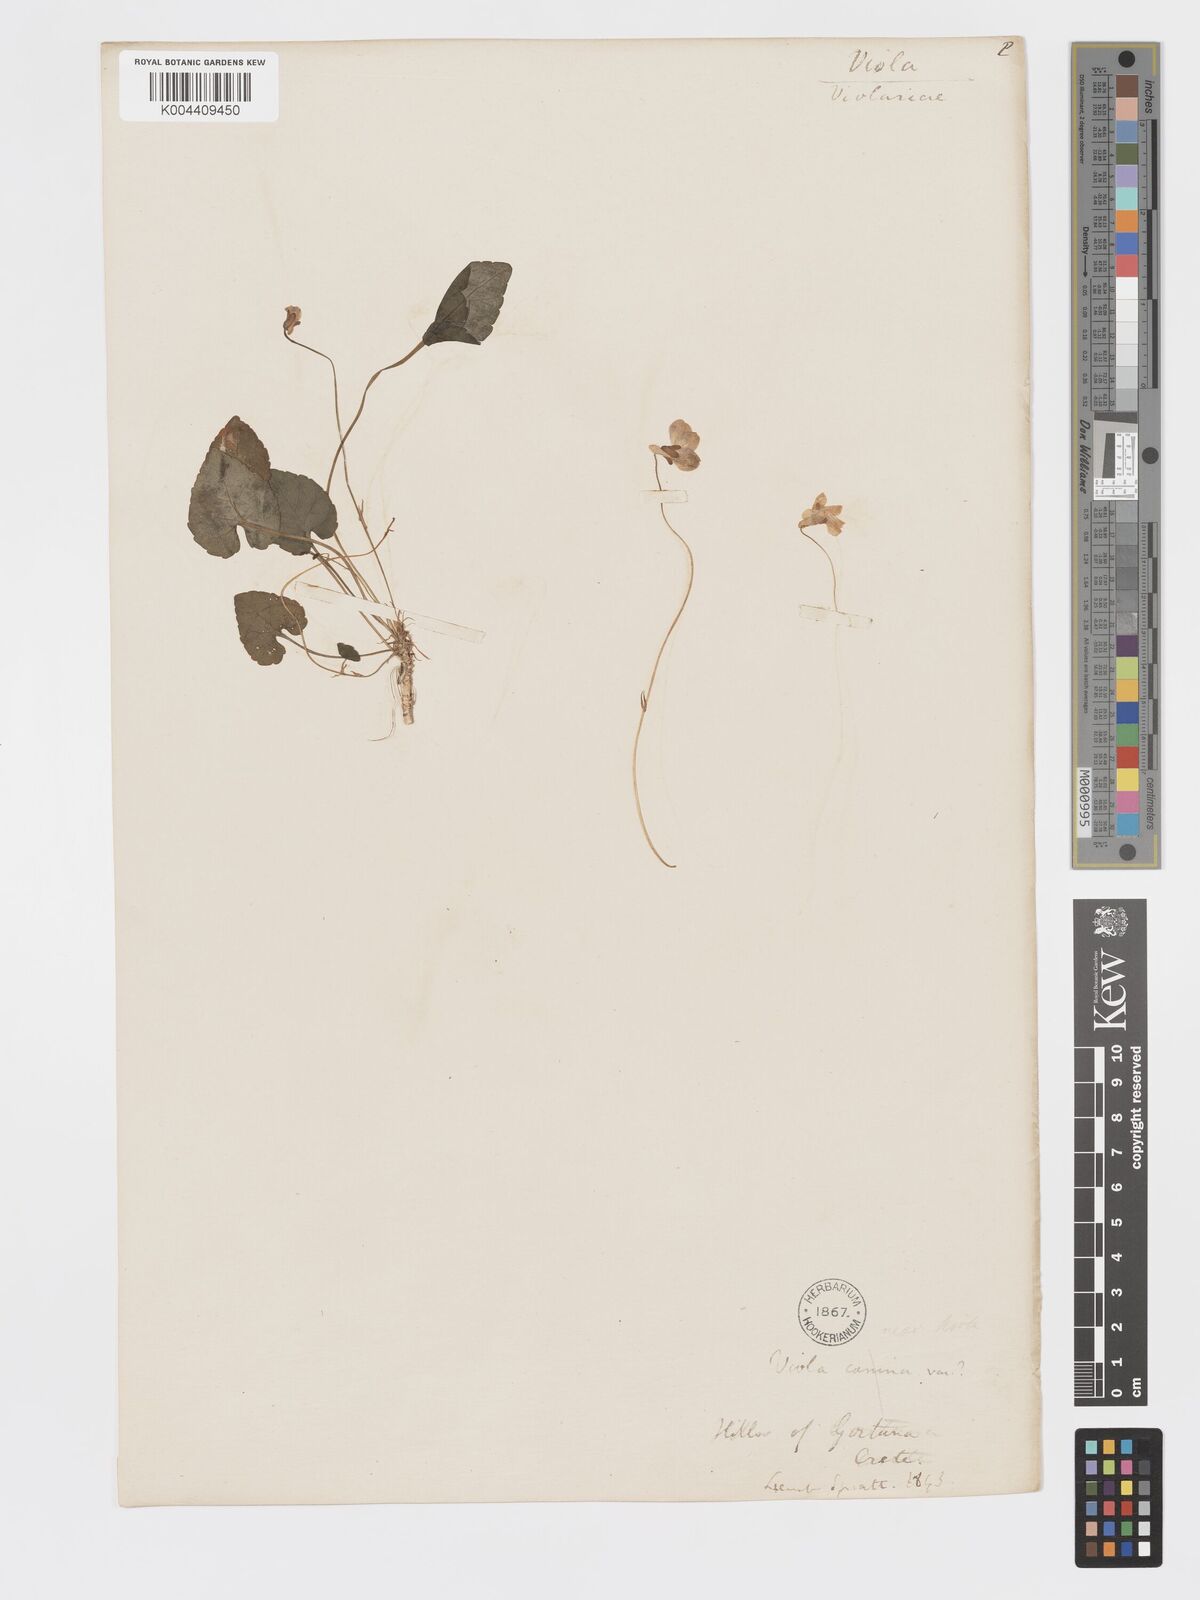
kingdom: Plantae
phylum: Tracheophyta
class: Magnoliopsida
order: Malpighiales
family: Violaceae
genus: Viola
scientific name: Viola alba
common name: White violet
